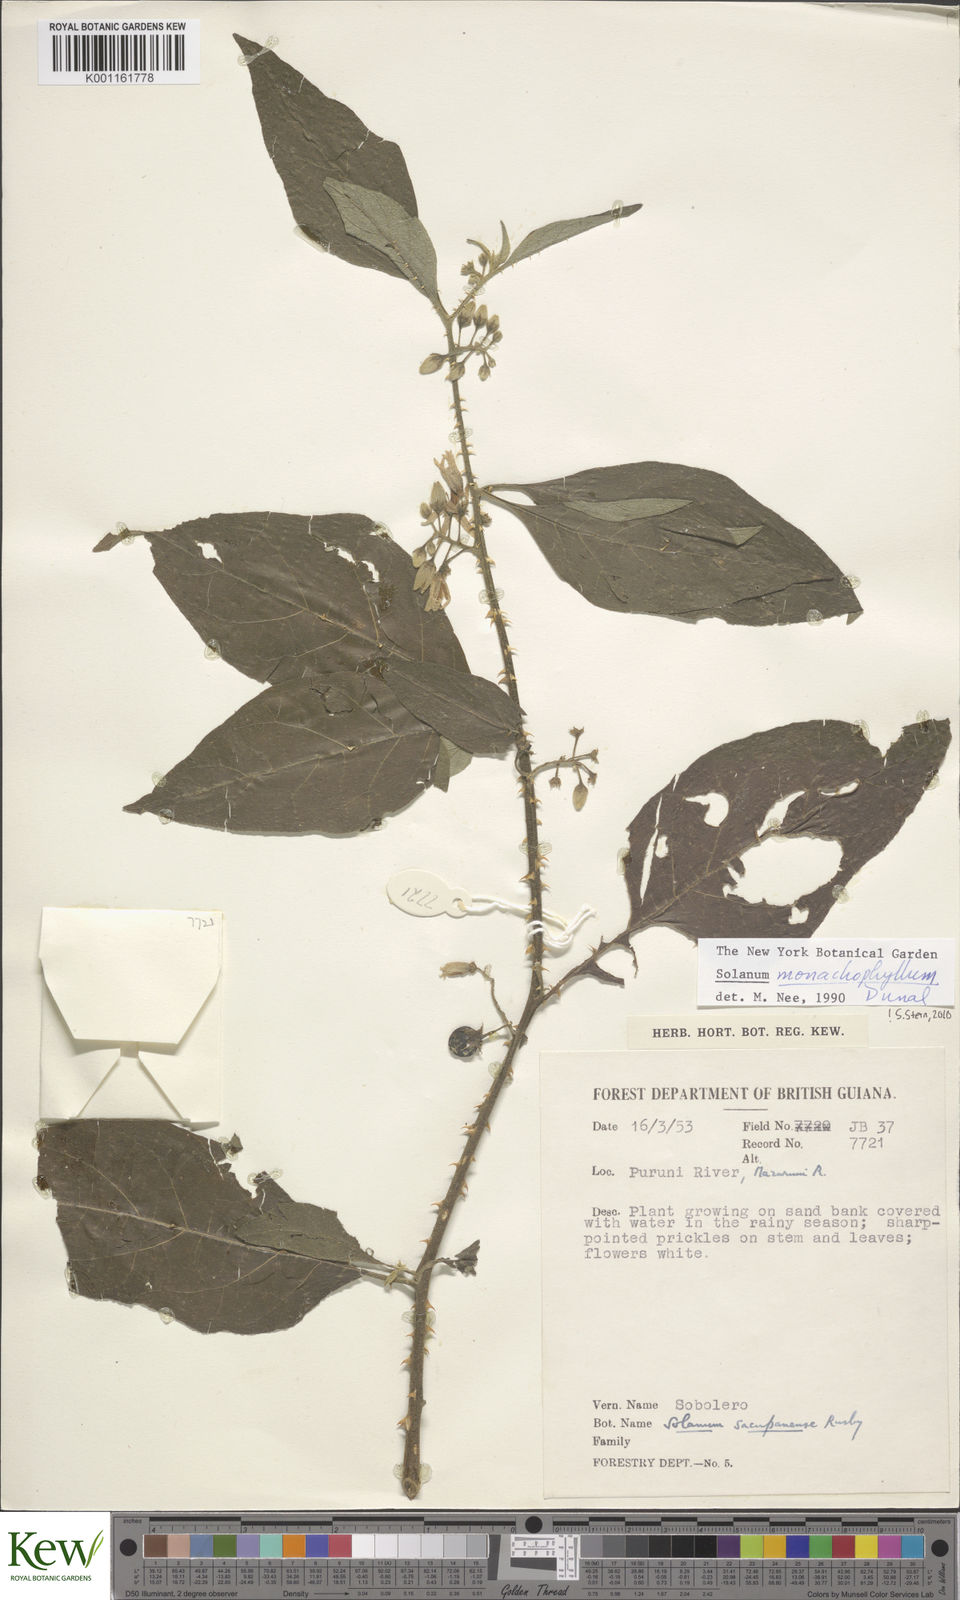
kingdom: Plantae
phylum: Tracheophyta
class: Magnoliopsida
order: Solanales
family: Solanaceae
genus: Solanum
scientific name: Solanum monachophyllum
